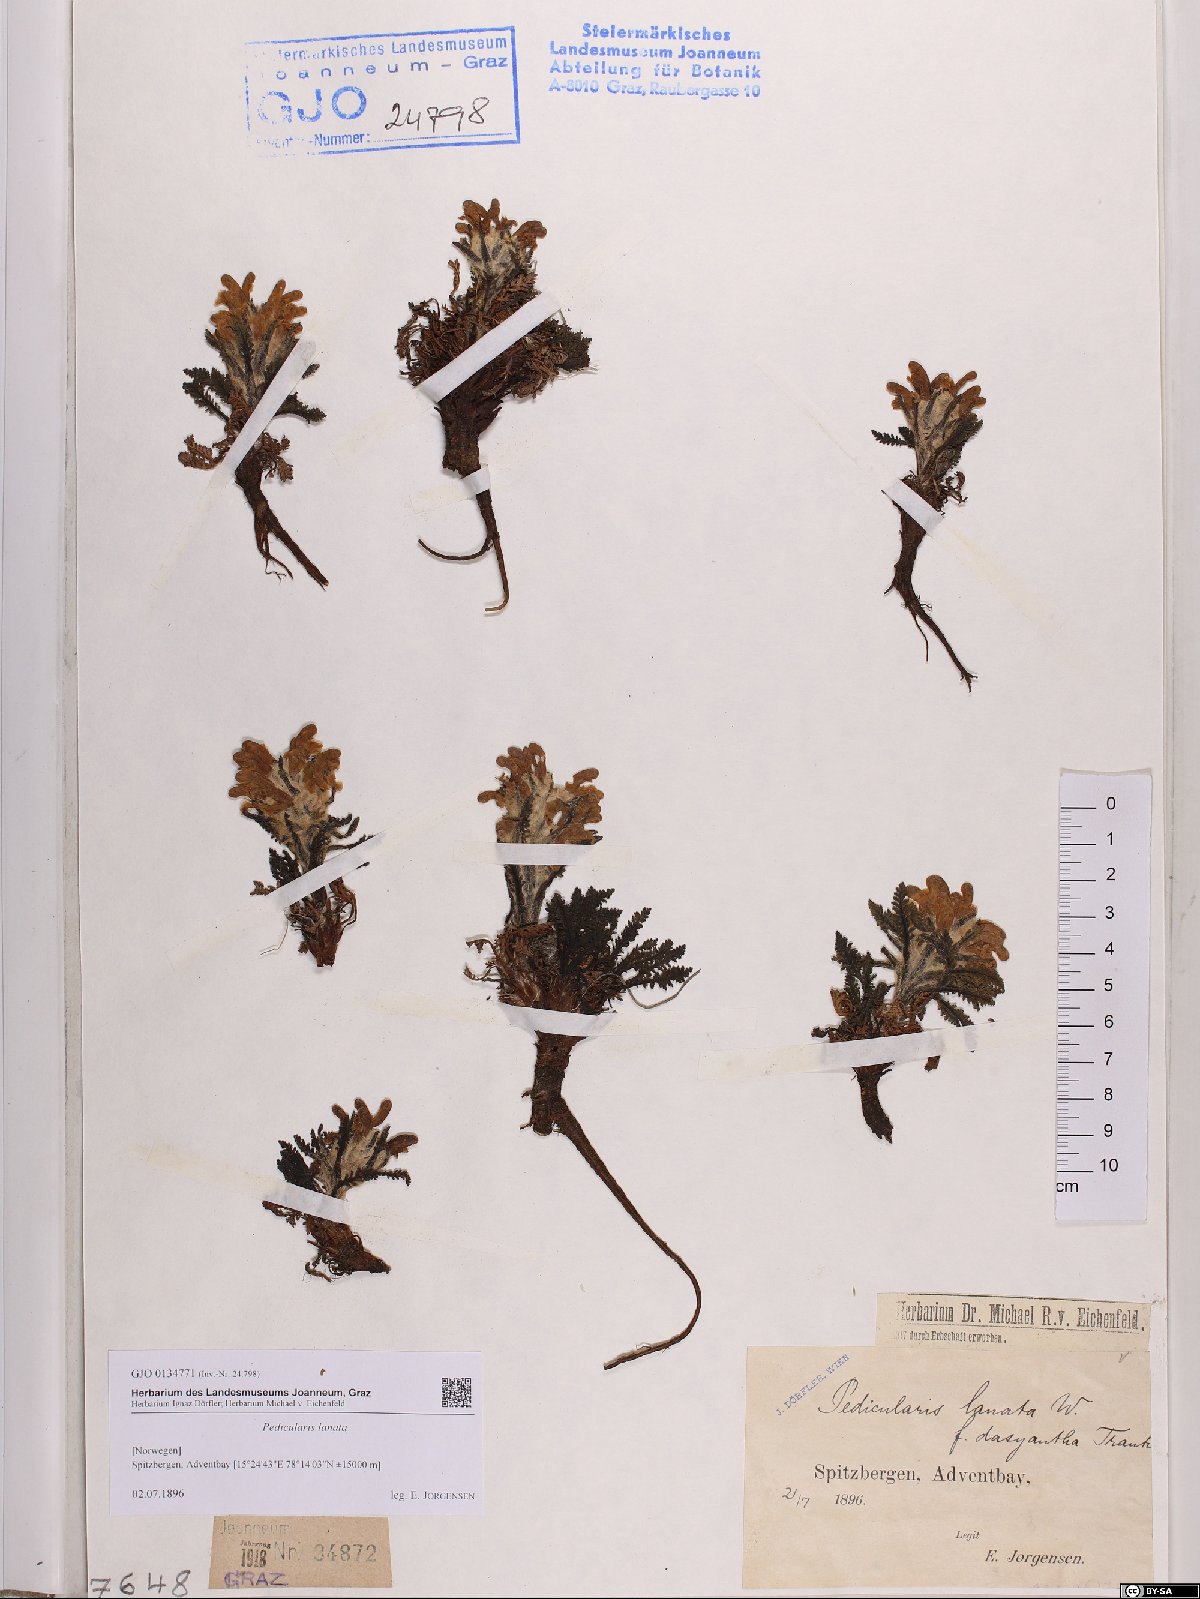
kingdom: Plantae
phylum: Tracheophyta
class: Magnoliopsida
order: Lamiales
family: Orobanchaceae
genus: Pedicularis
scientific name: Pedicularis lanata
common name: Woolly lousewort
